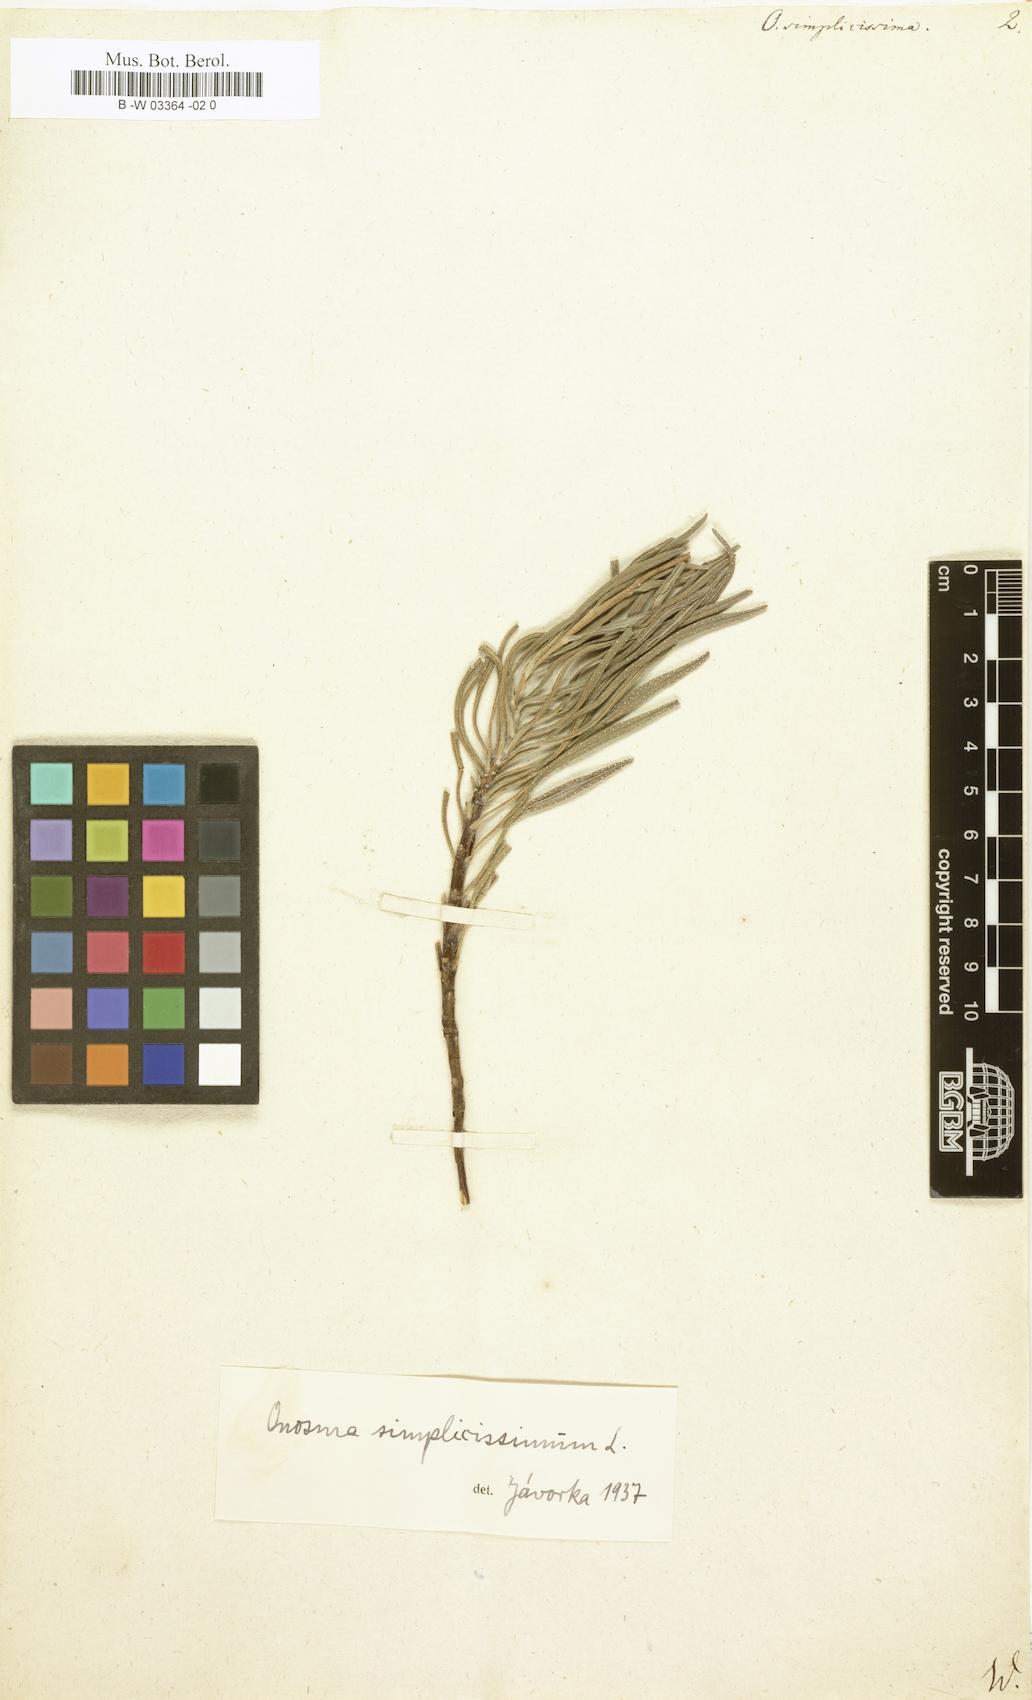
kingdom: Plantae
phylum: Tracheophyta
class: Magnoliopsida
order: Boraginales
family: Boraginaceae
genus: Onosma
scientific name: Onosma simplicissima
